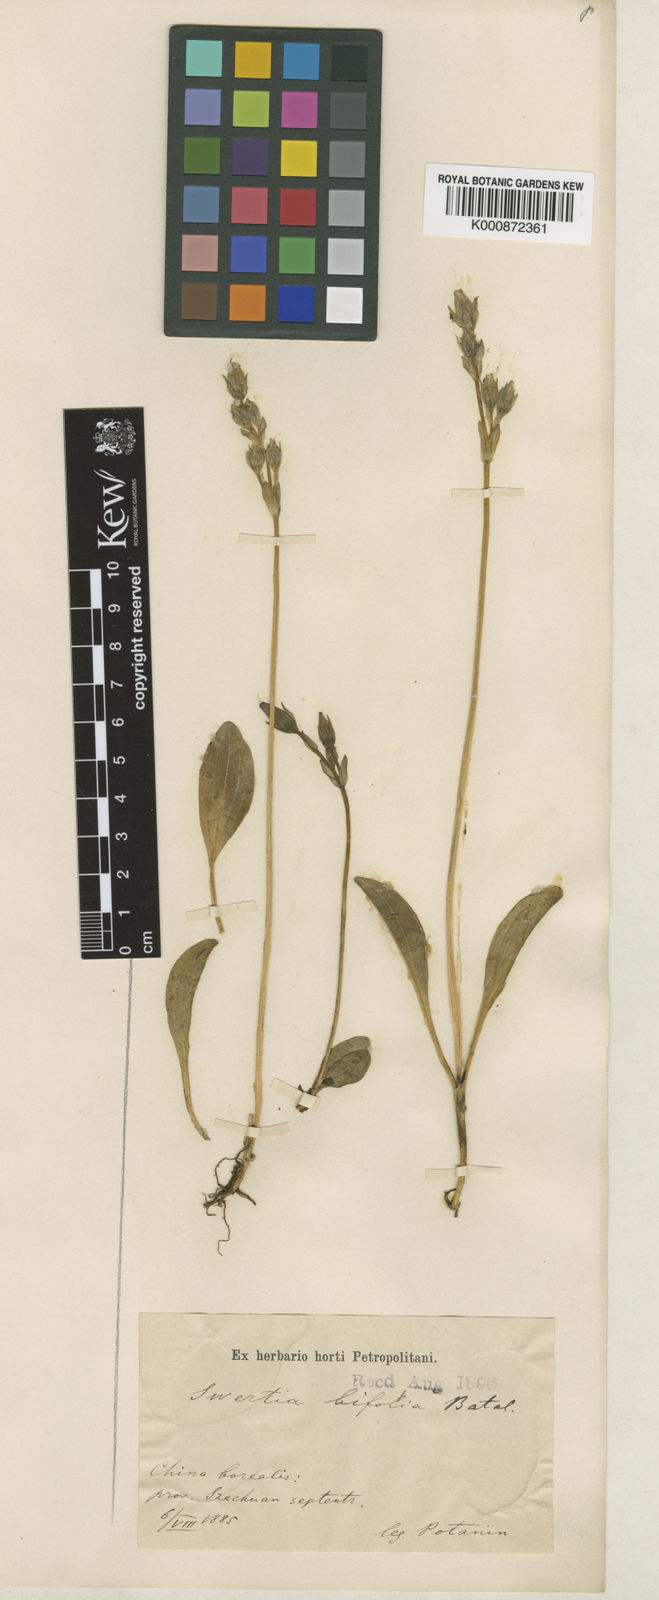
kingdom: Plantae
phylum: Tracheophyta
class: Magnoliopsida
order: Gentianales
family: Gentianaceae
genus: Swertia
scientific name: Swertia bifolia
